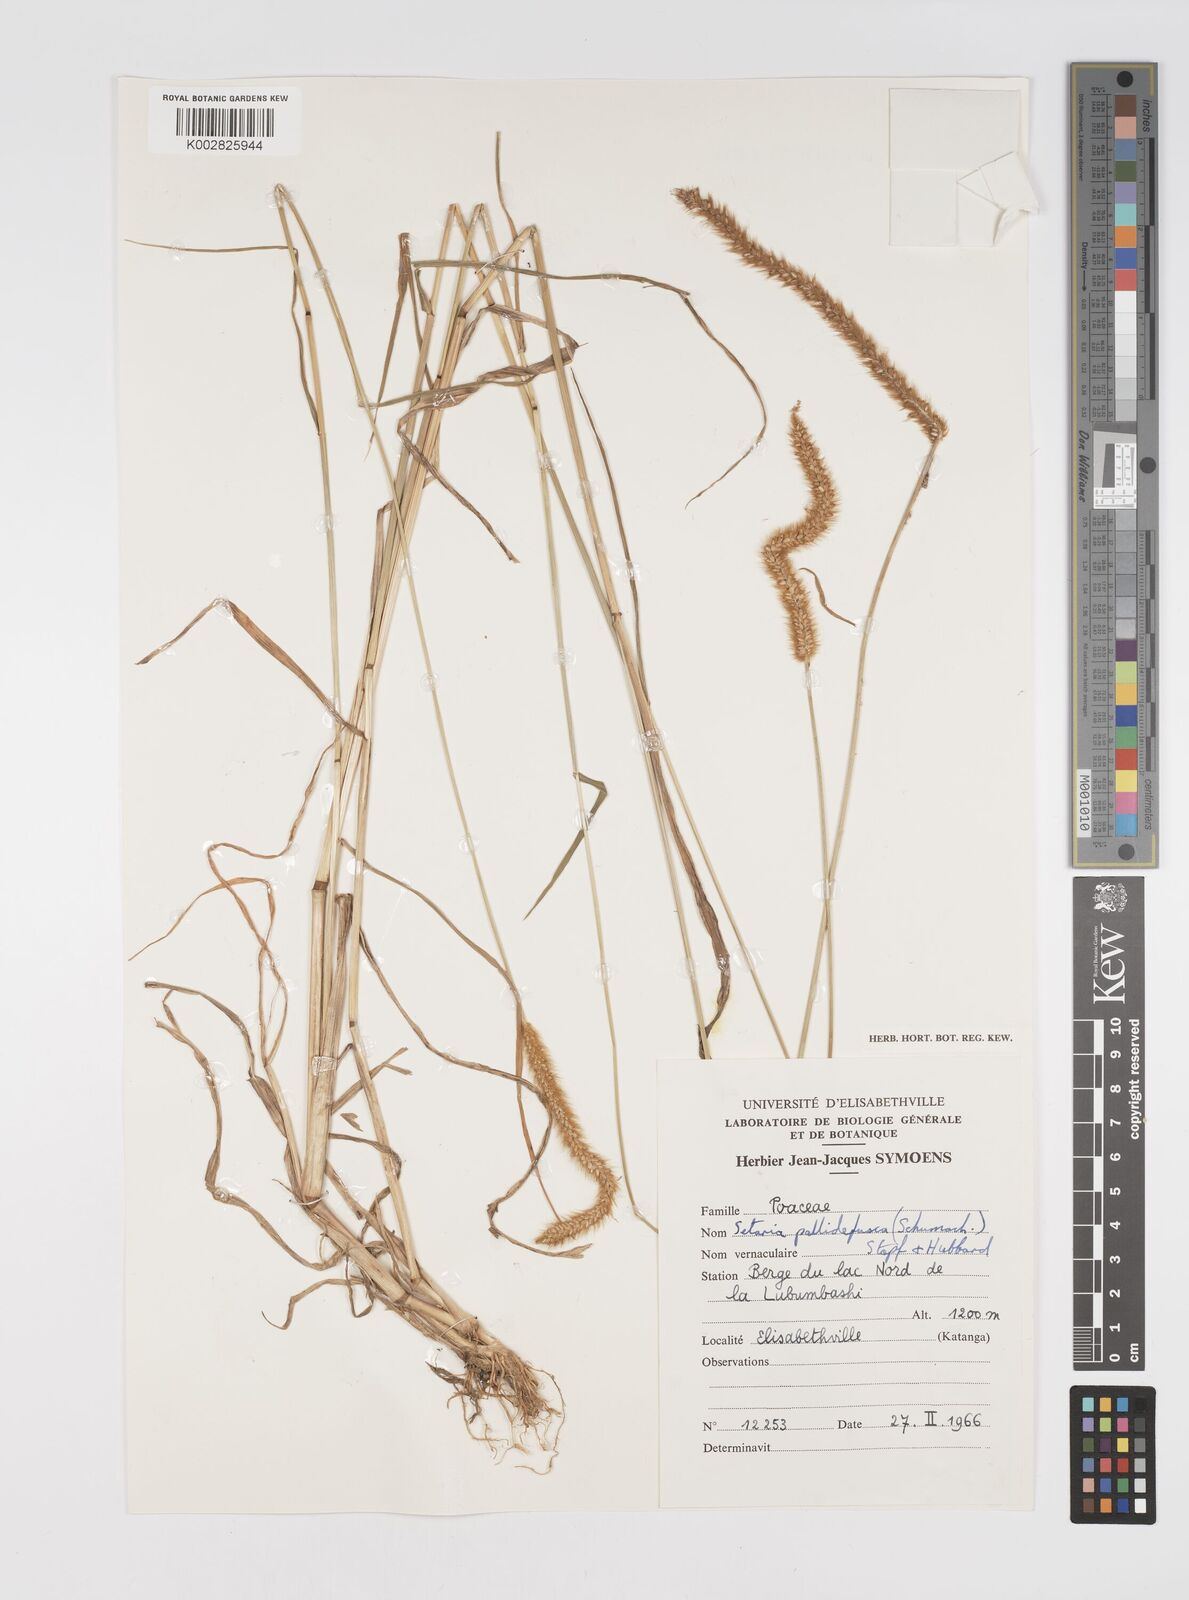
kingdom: Plantae
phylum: Tracheophyta
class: Liliopsida
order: Poales
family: Poaceae
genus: Setaria
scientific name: Setaria pumila
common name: Yellow bristle-grass
